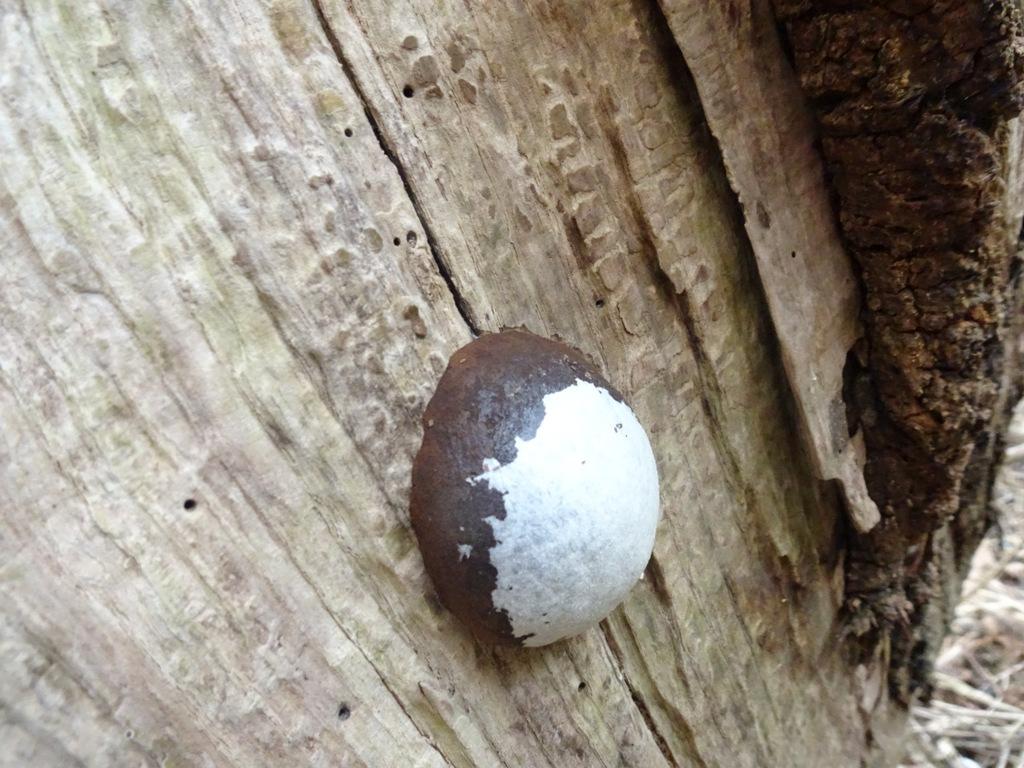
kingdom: Protozoa
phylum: Mycetozoa
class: Myxomycetes
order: Cribrariales
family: Tubiferaceae
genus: Reticularia
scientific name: Reticularia lycoperdon
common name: skinnende støvpude
